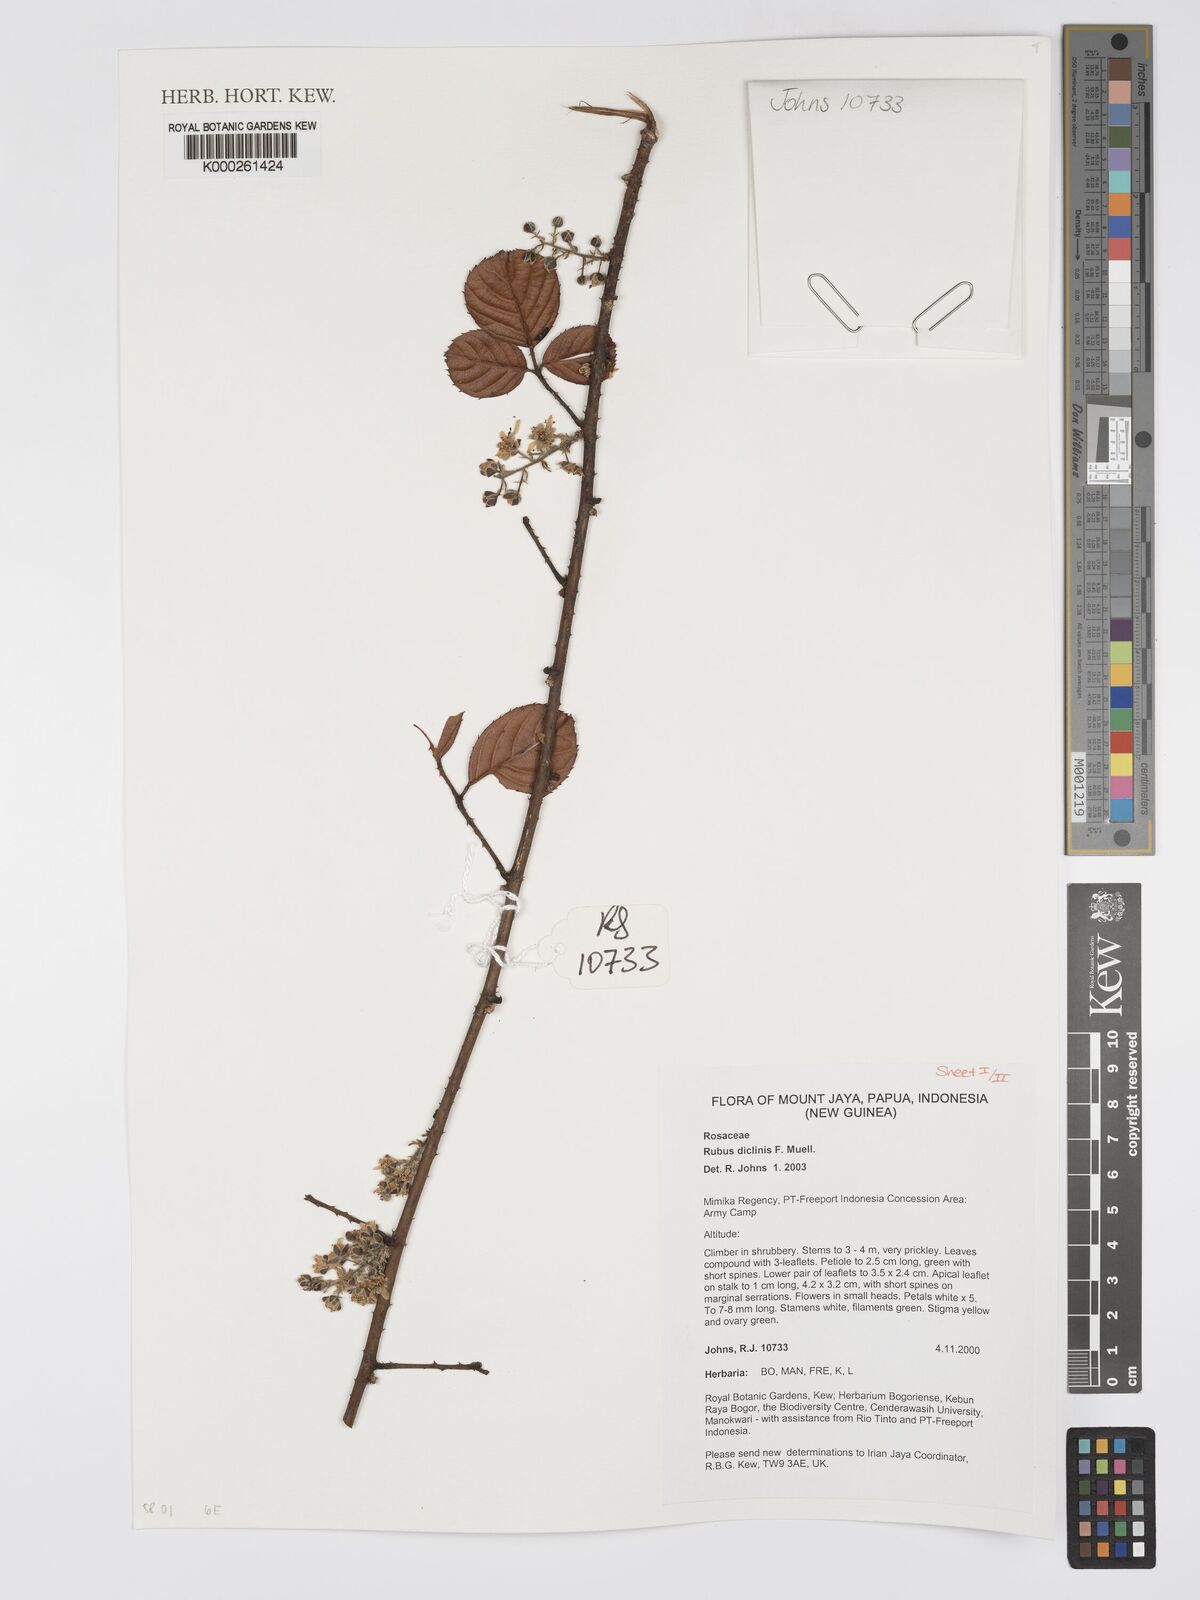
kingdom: Plantae
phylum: Tracheophyta
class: Magnoliopsida
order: Rosales
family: Rosaceae
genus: Rubus
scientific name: Rubus diclinis
